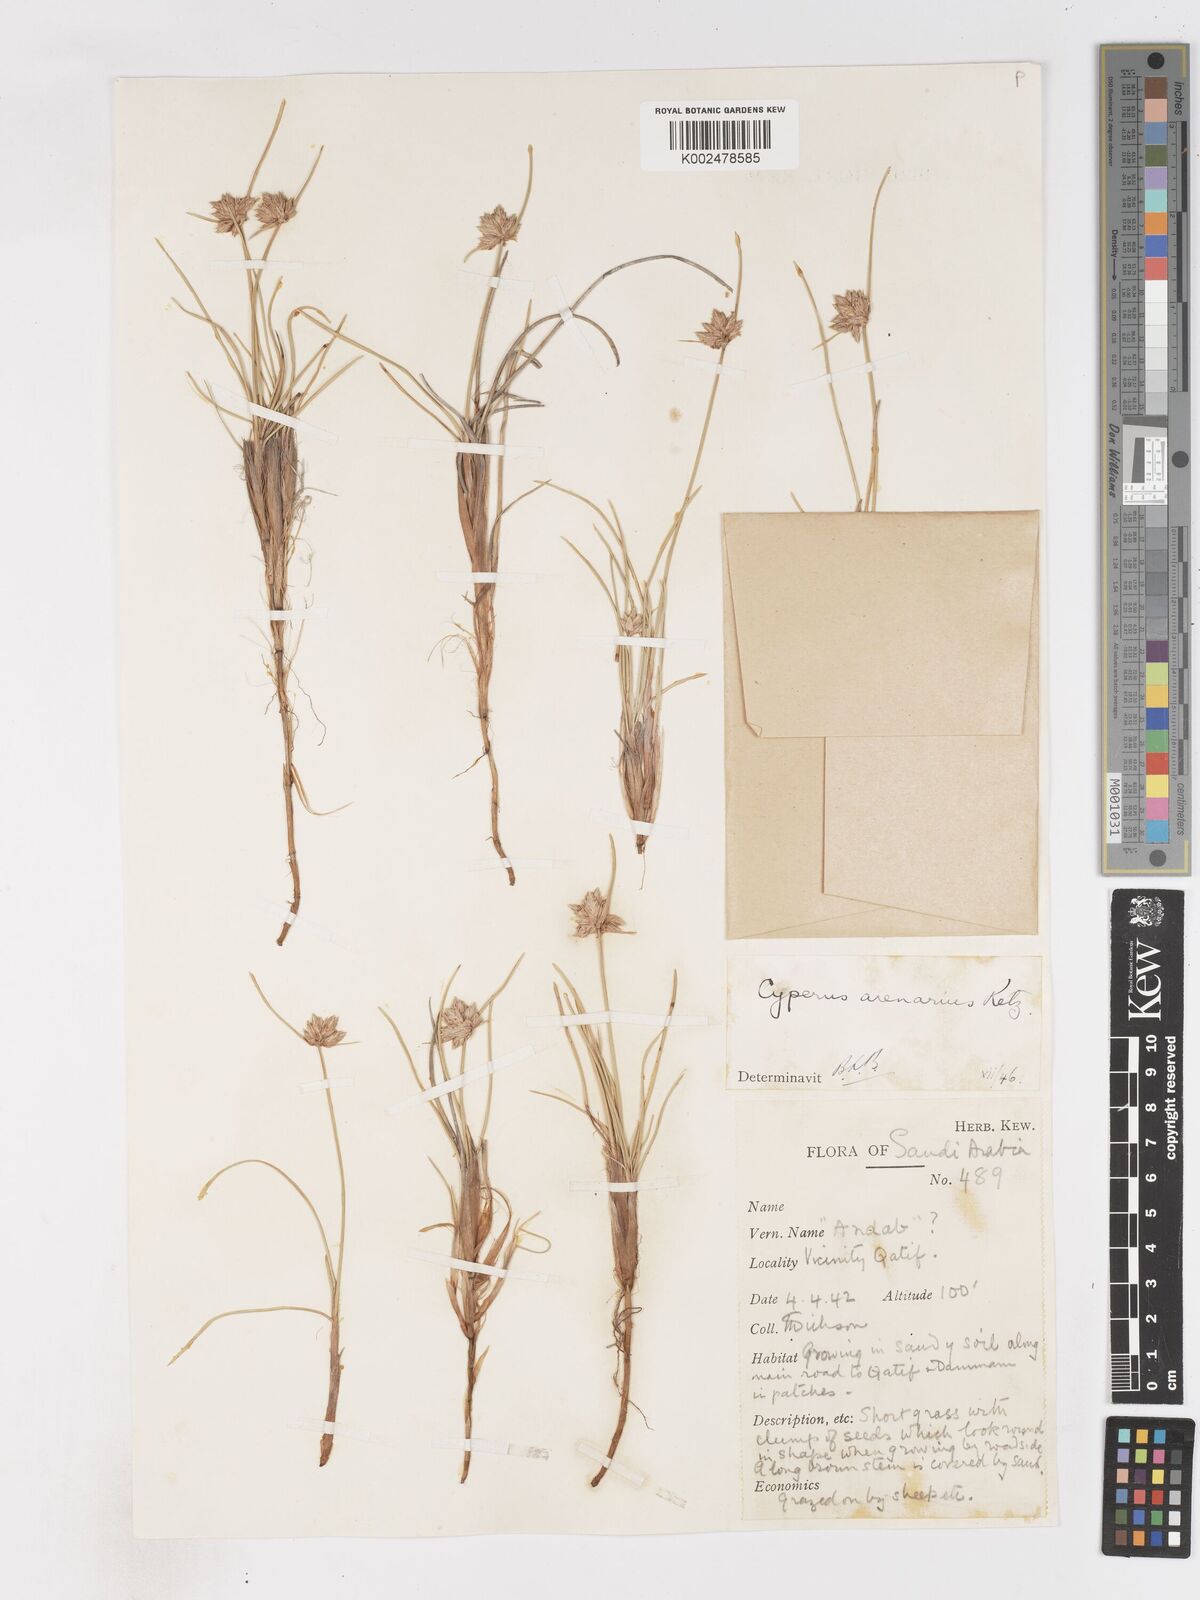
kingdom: Plantae
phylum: Tracheophyta
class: Liliopsida
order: Poales
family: Cyperaceae
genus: Cyperus
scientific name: Cyperus arenarius
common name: Dwarf sedge
